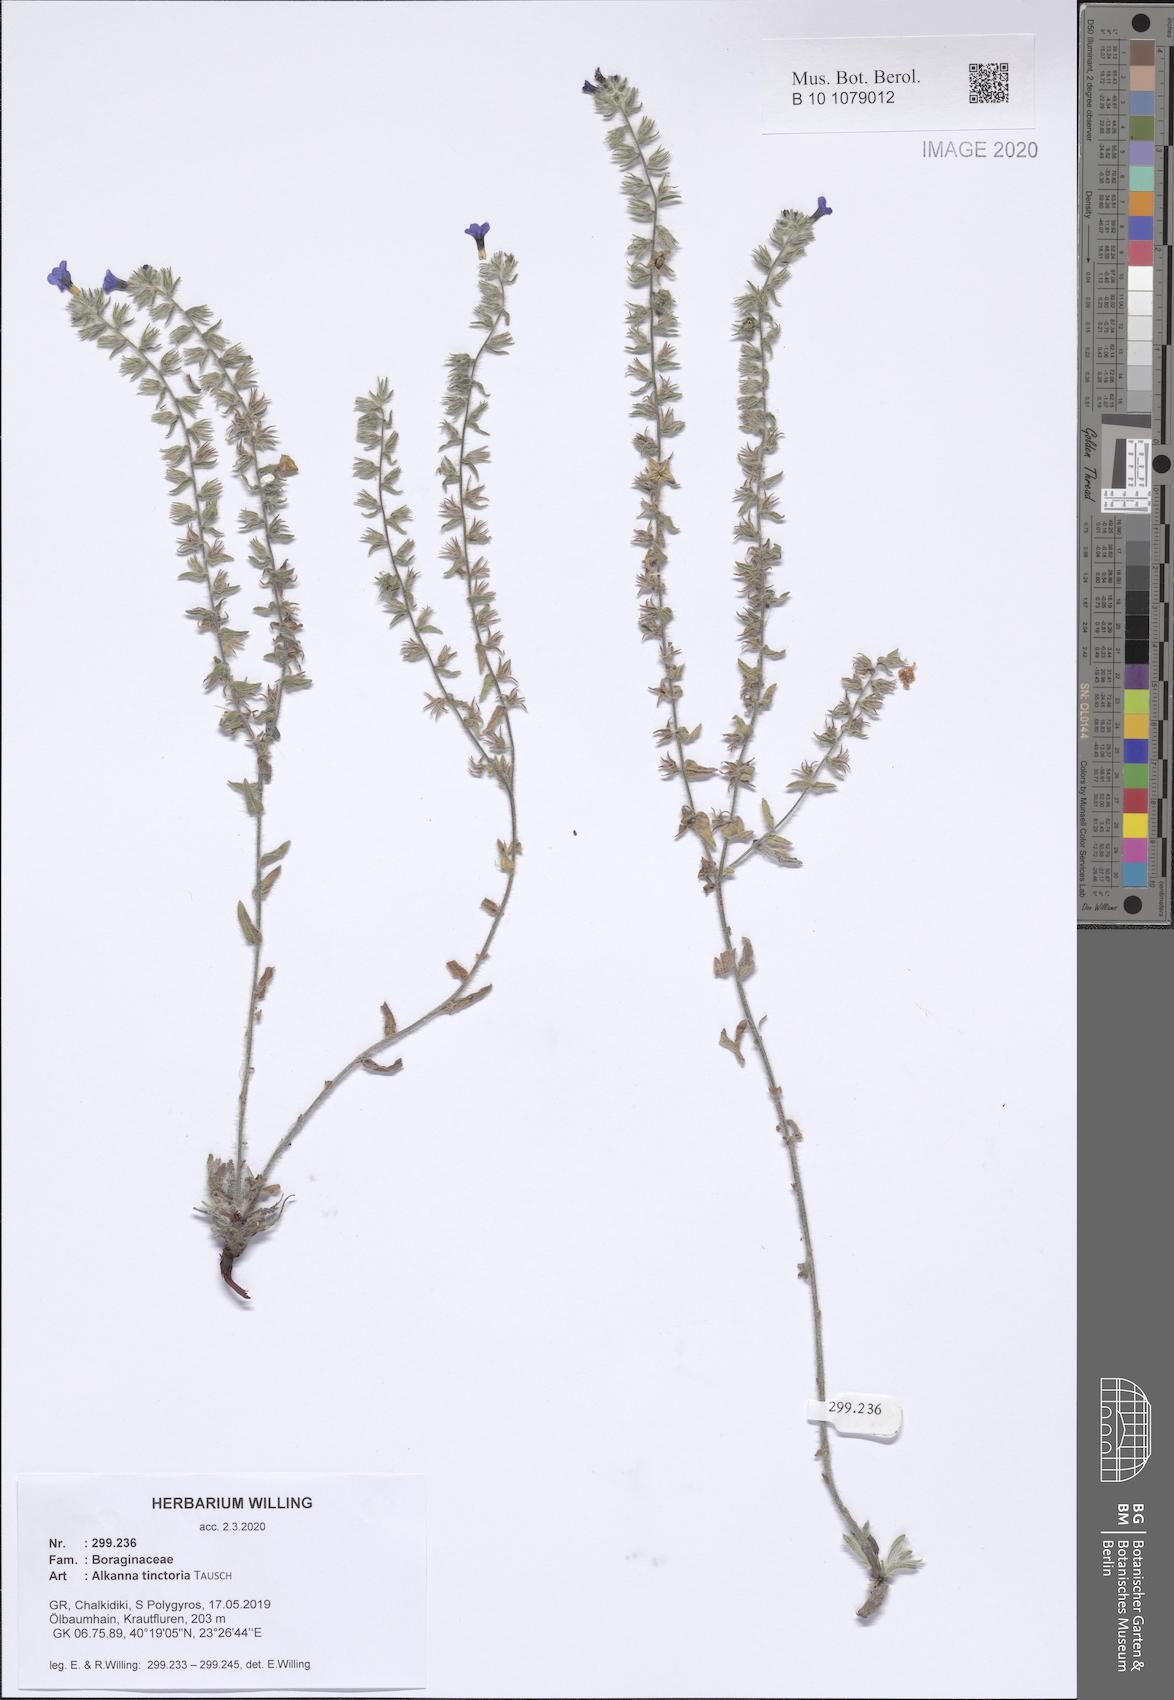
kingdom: Plantae
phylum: Tracheophyta
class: Magnoliopsida
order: Boraginales
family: Boraginaceae
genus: Alkanna
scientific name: Alkanna tinctoria
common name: Dyer's-alkanet
